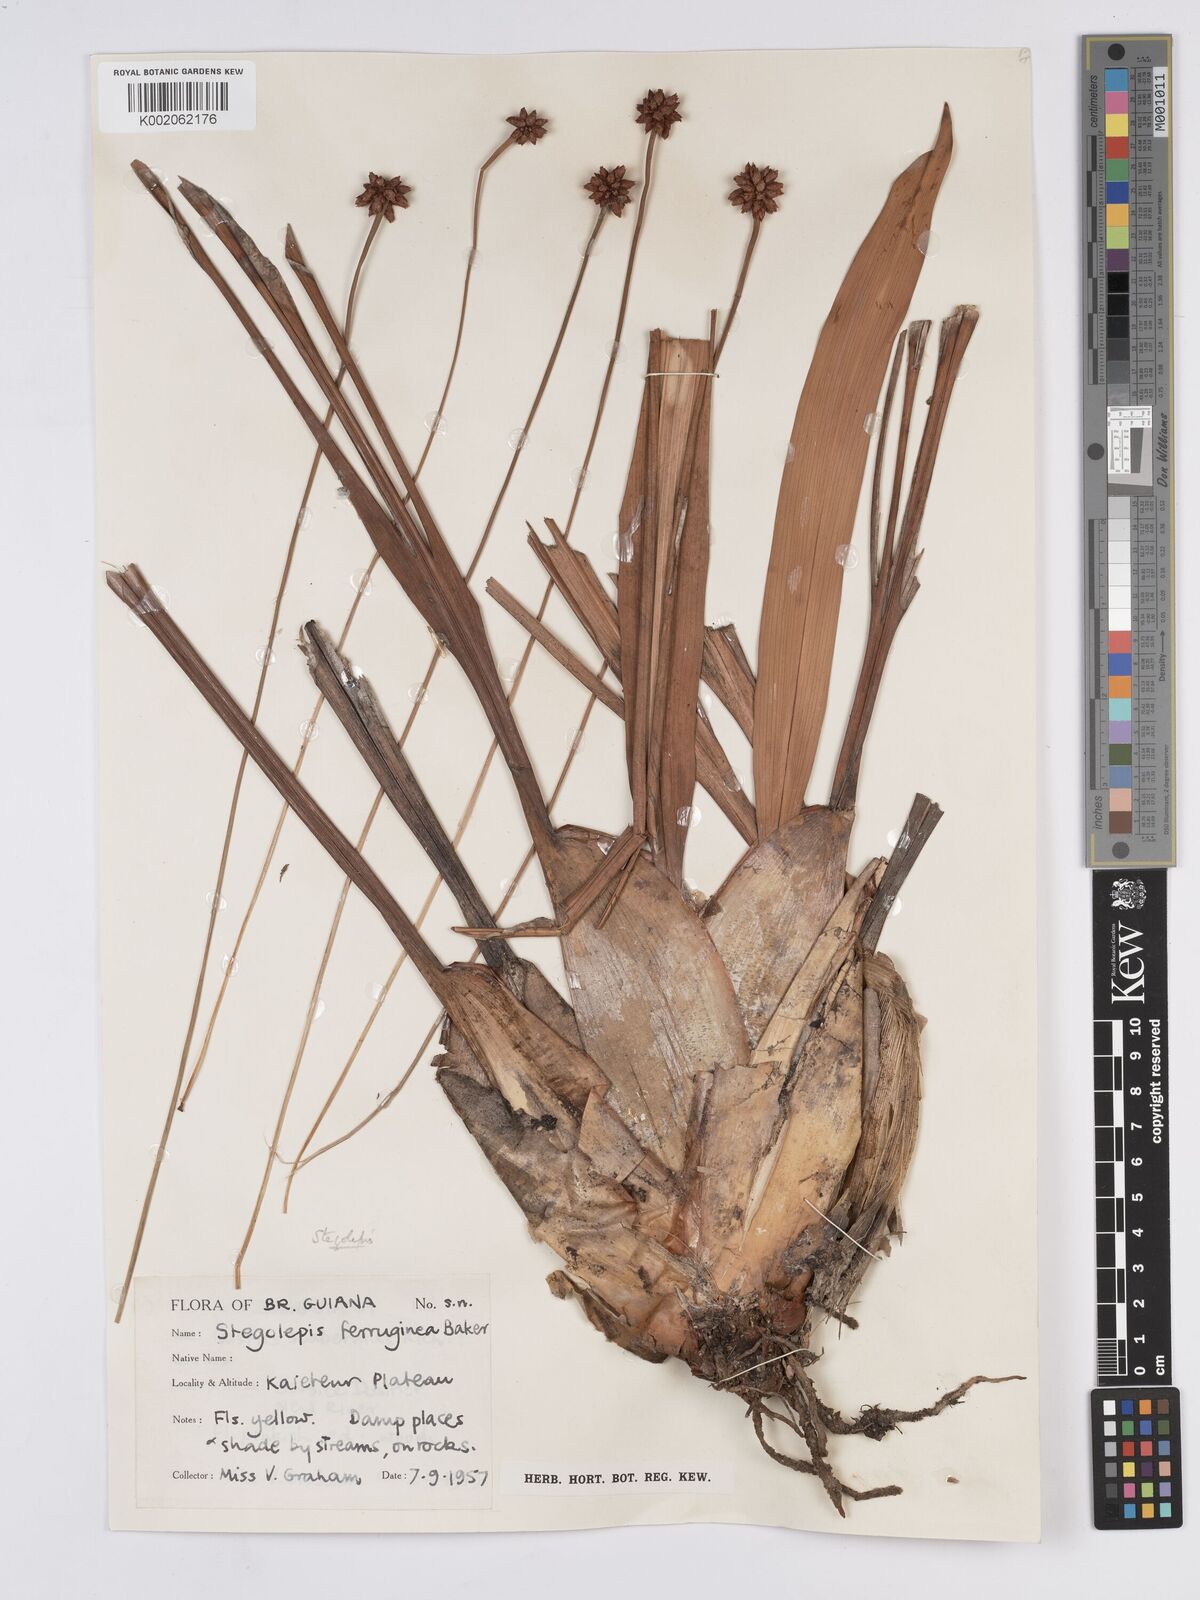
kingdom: Plantae
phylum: Tracheophyta
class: Liliopsida
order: Poales
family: Rapateaceae
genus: Stegolepis
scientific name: Stegolepis ferruginea
